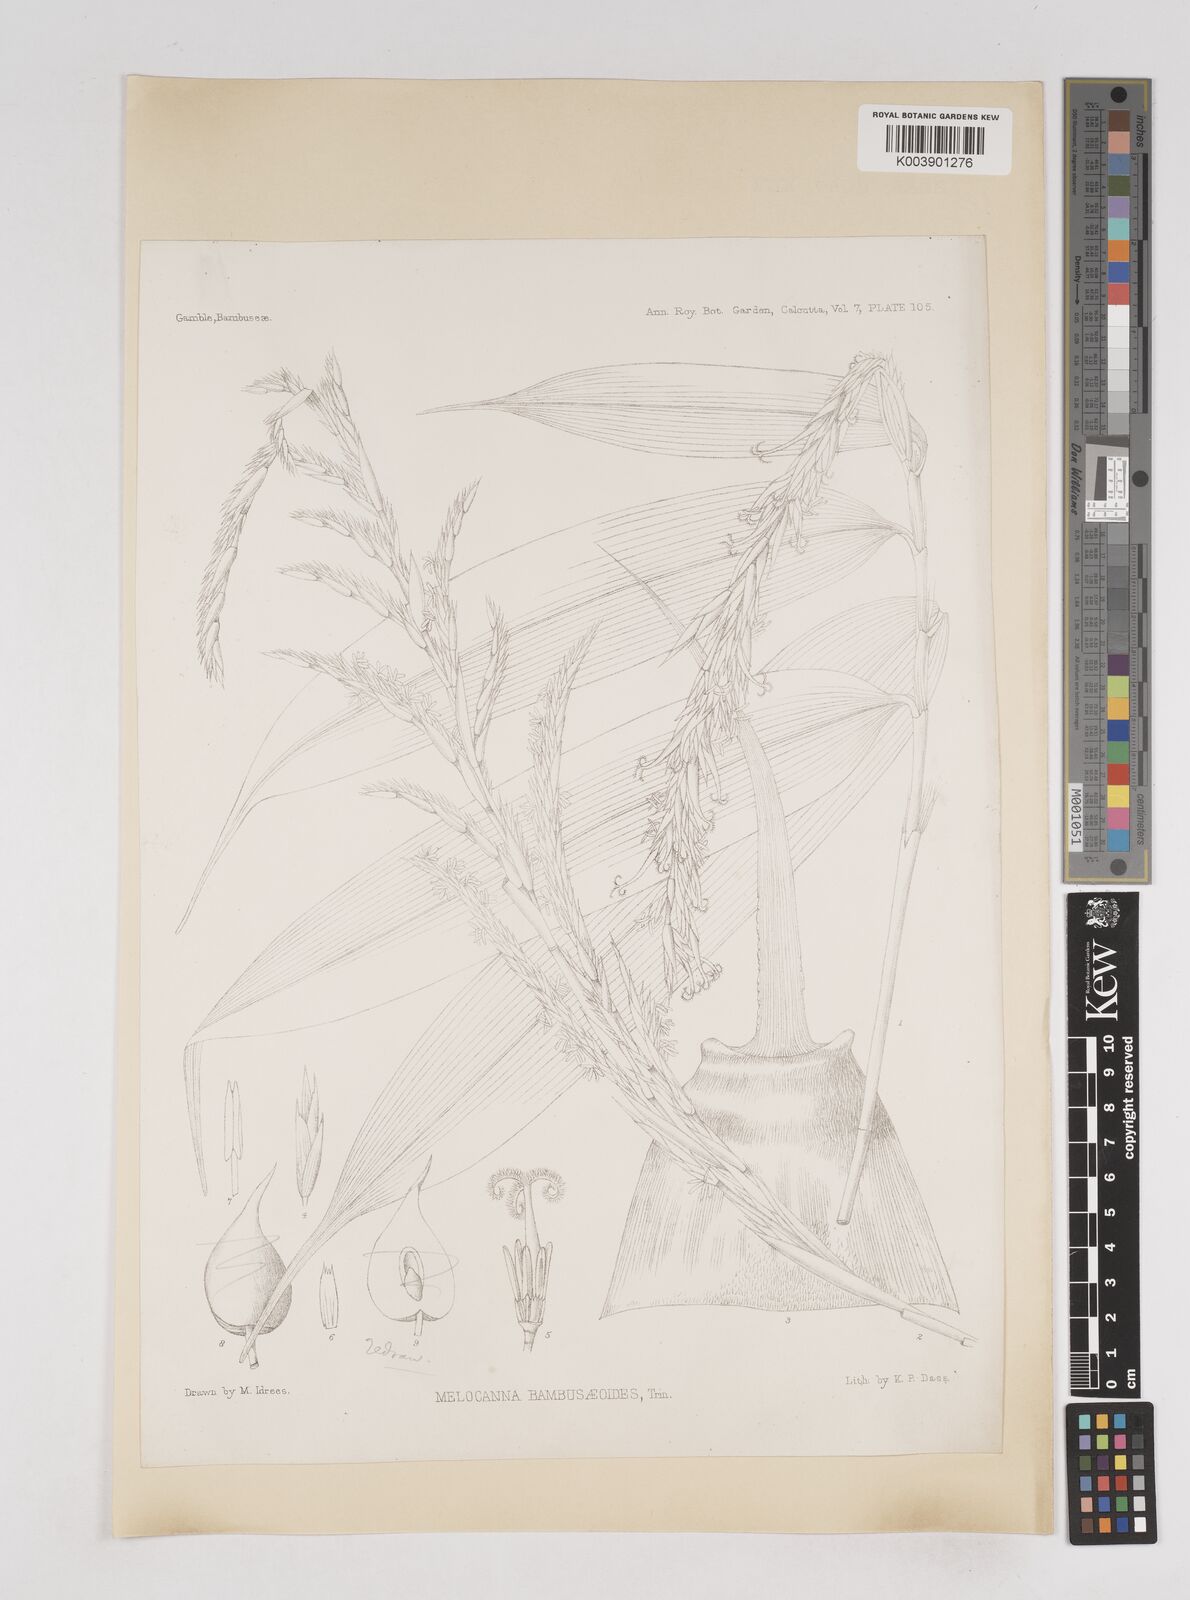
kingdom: Plantae
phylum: Tracheophyta
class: Liliopsida
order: Poales
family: Poaceae
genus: Melocanna
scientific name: Melocanna baccifera
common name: Berry bamboo
